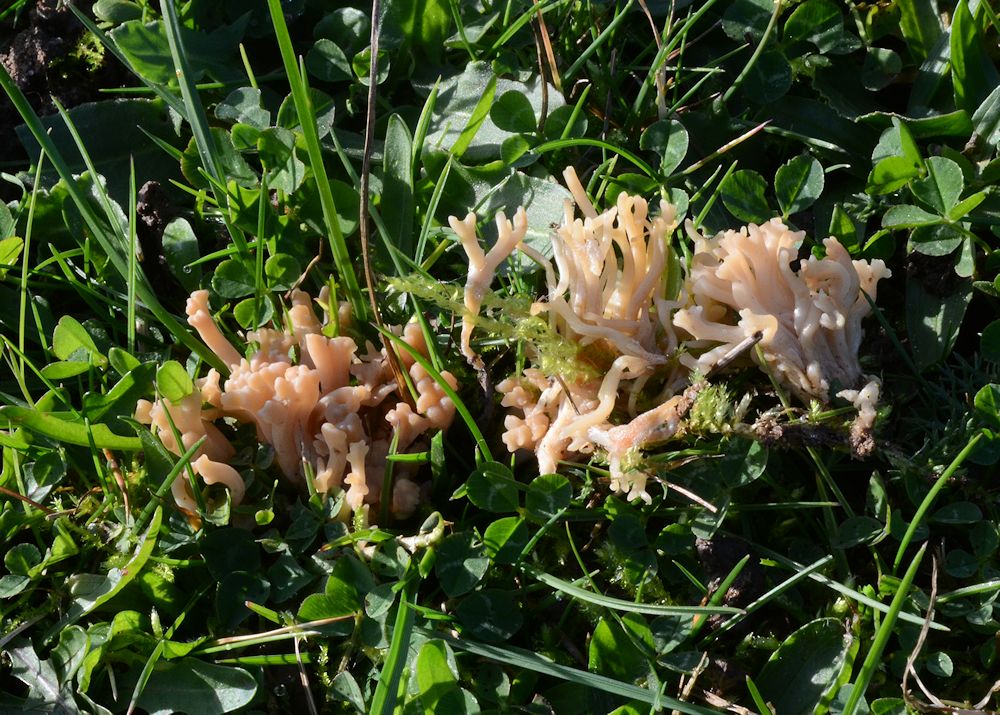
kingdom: Fungi
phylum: Basidiomycota
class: Agaricomycetes
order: Agaricales
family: Clavariaceae
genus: Clavulinopsis
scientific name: Clavulinopsis umbrinella
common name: gulgrå køllesvamp
